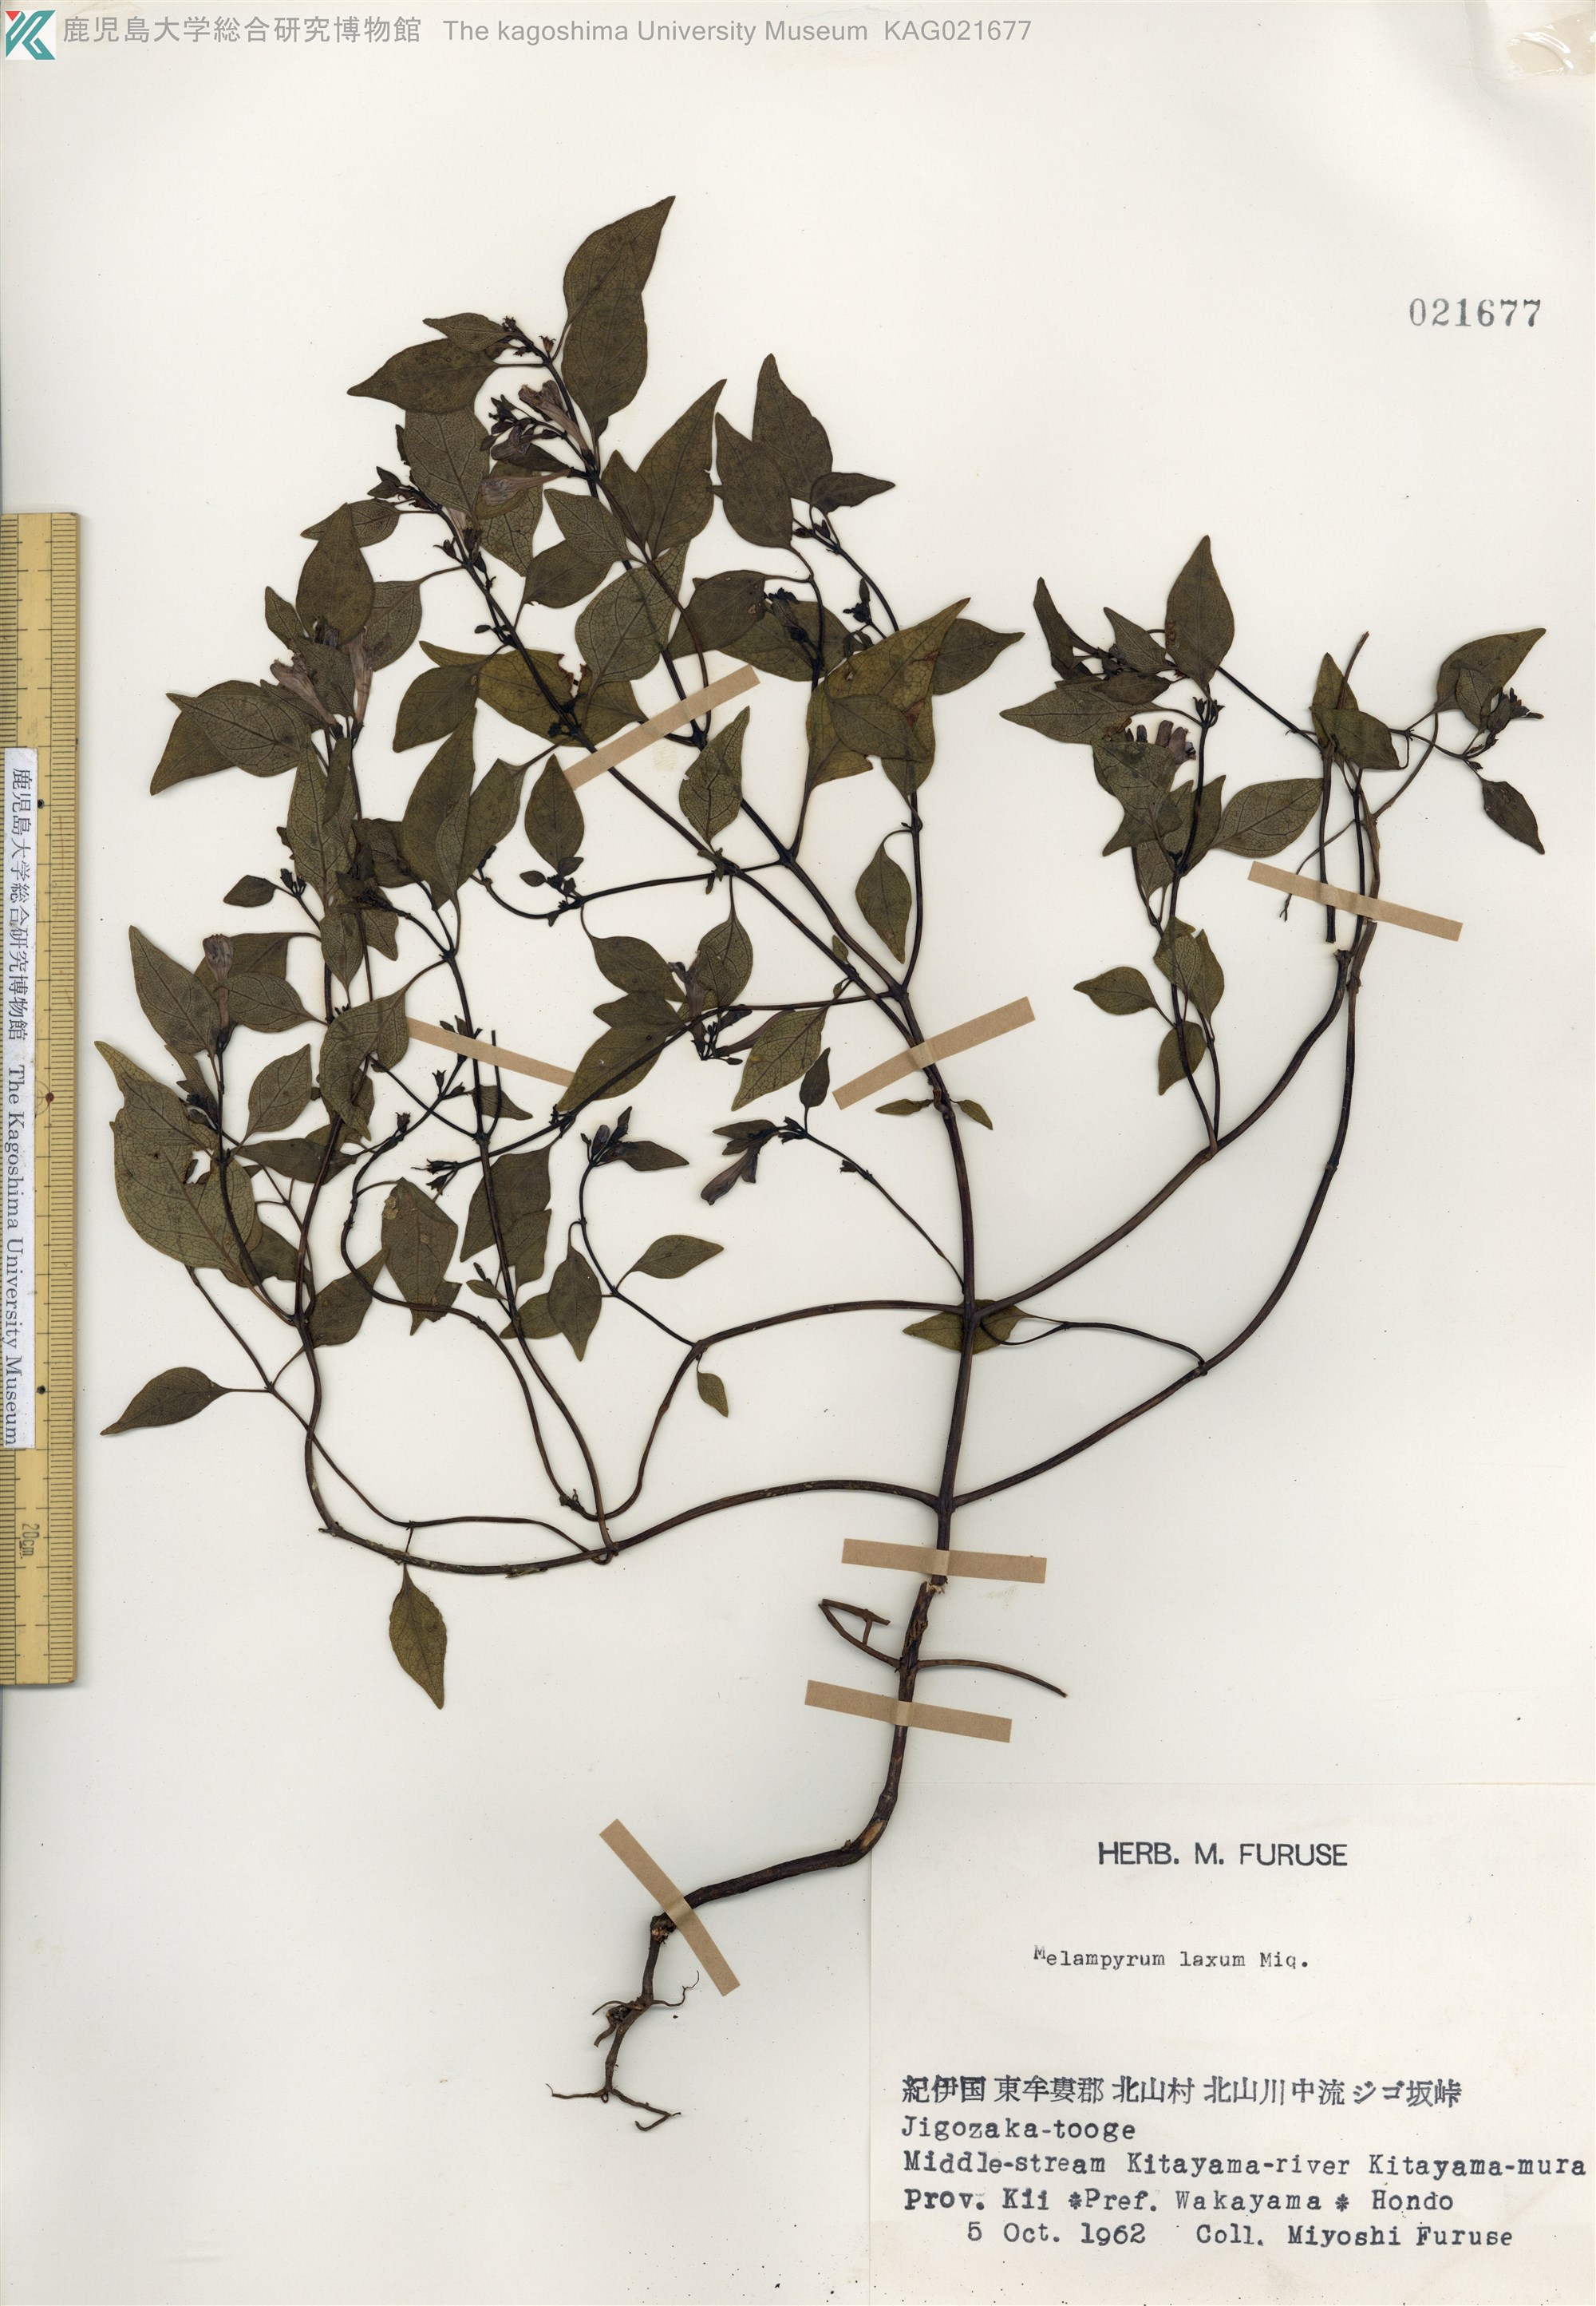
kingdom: Plantae
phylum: Tracheophyta
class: Magnoliopsida
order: Lamiales
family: Orobanchaceae
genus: Melampyrum
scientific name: Melampyrum laxum
